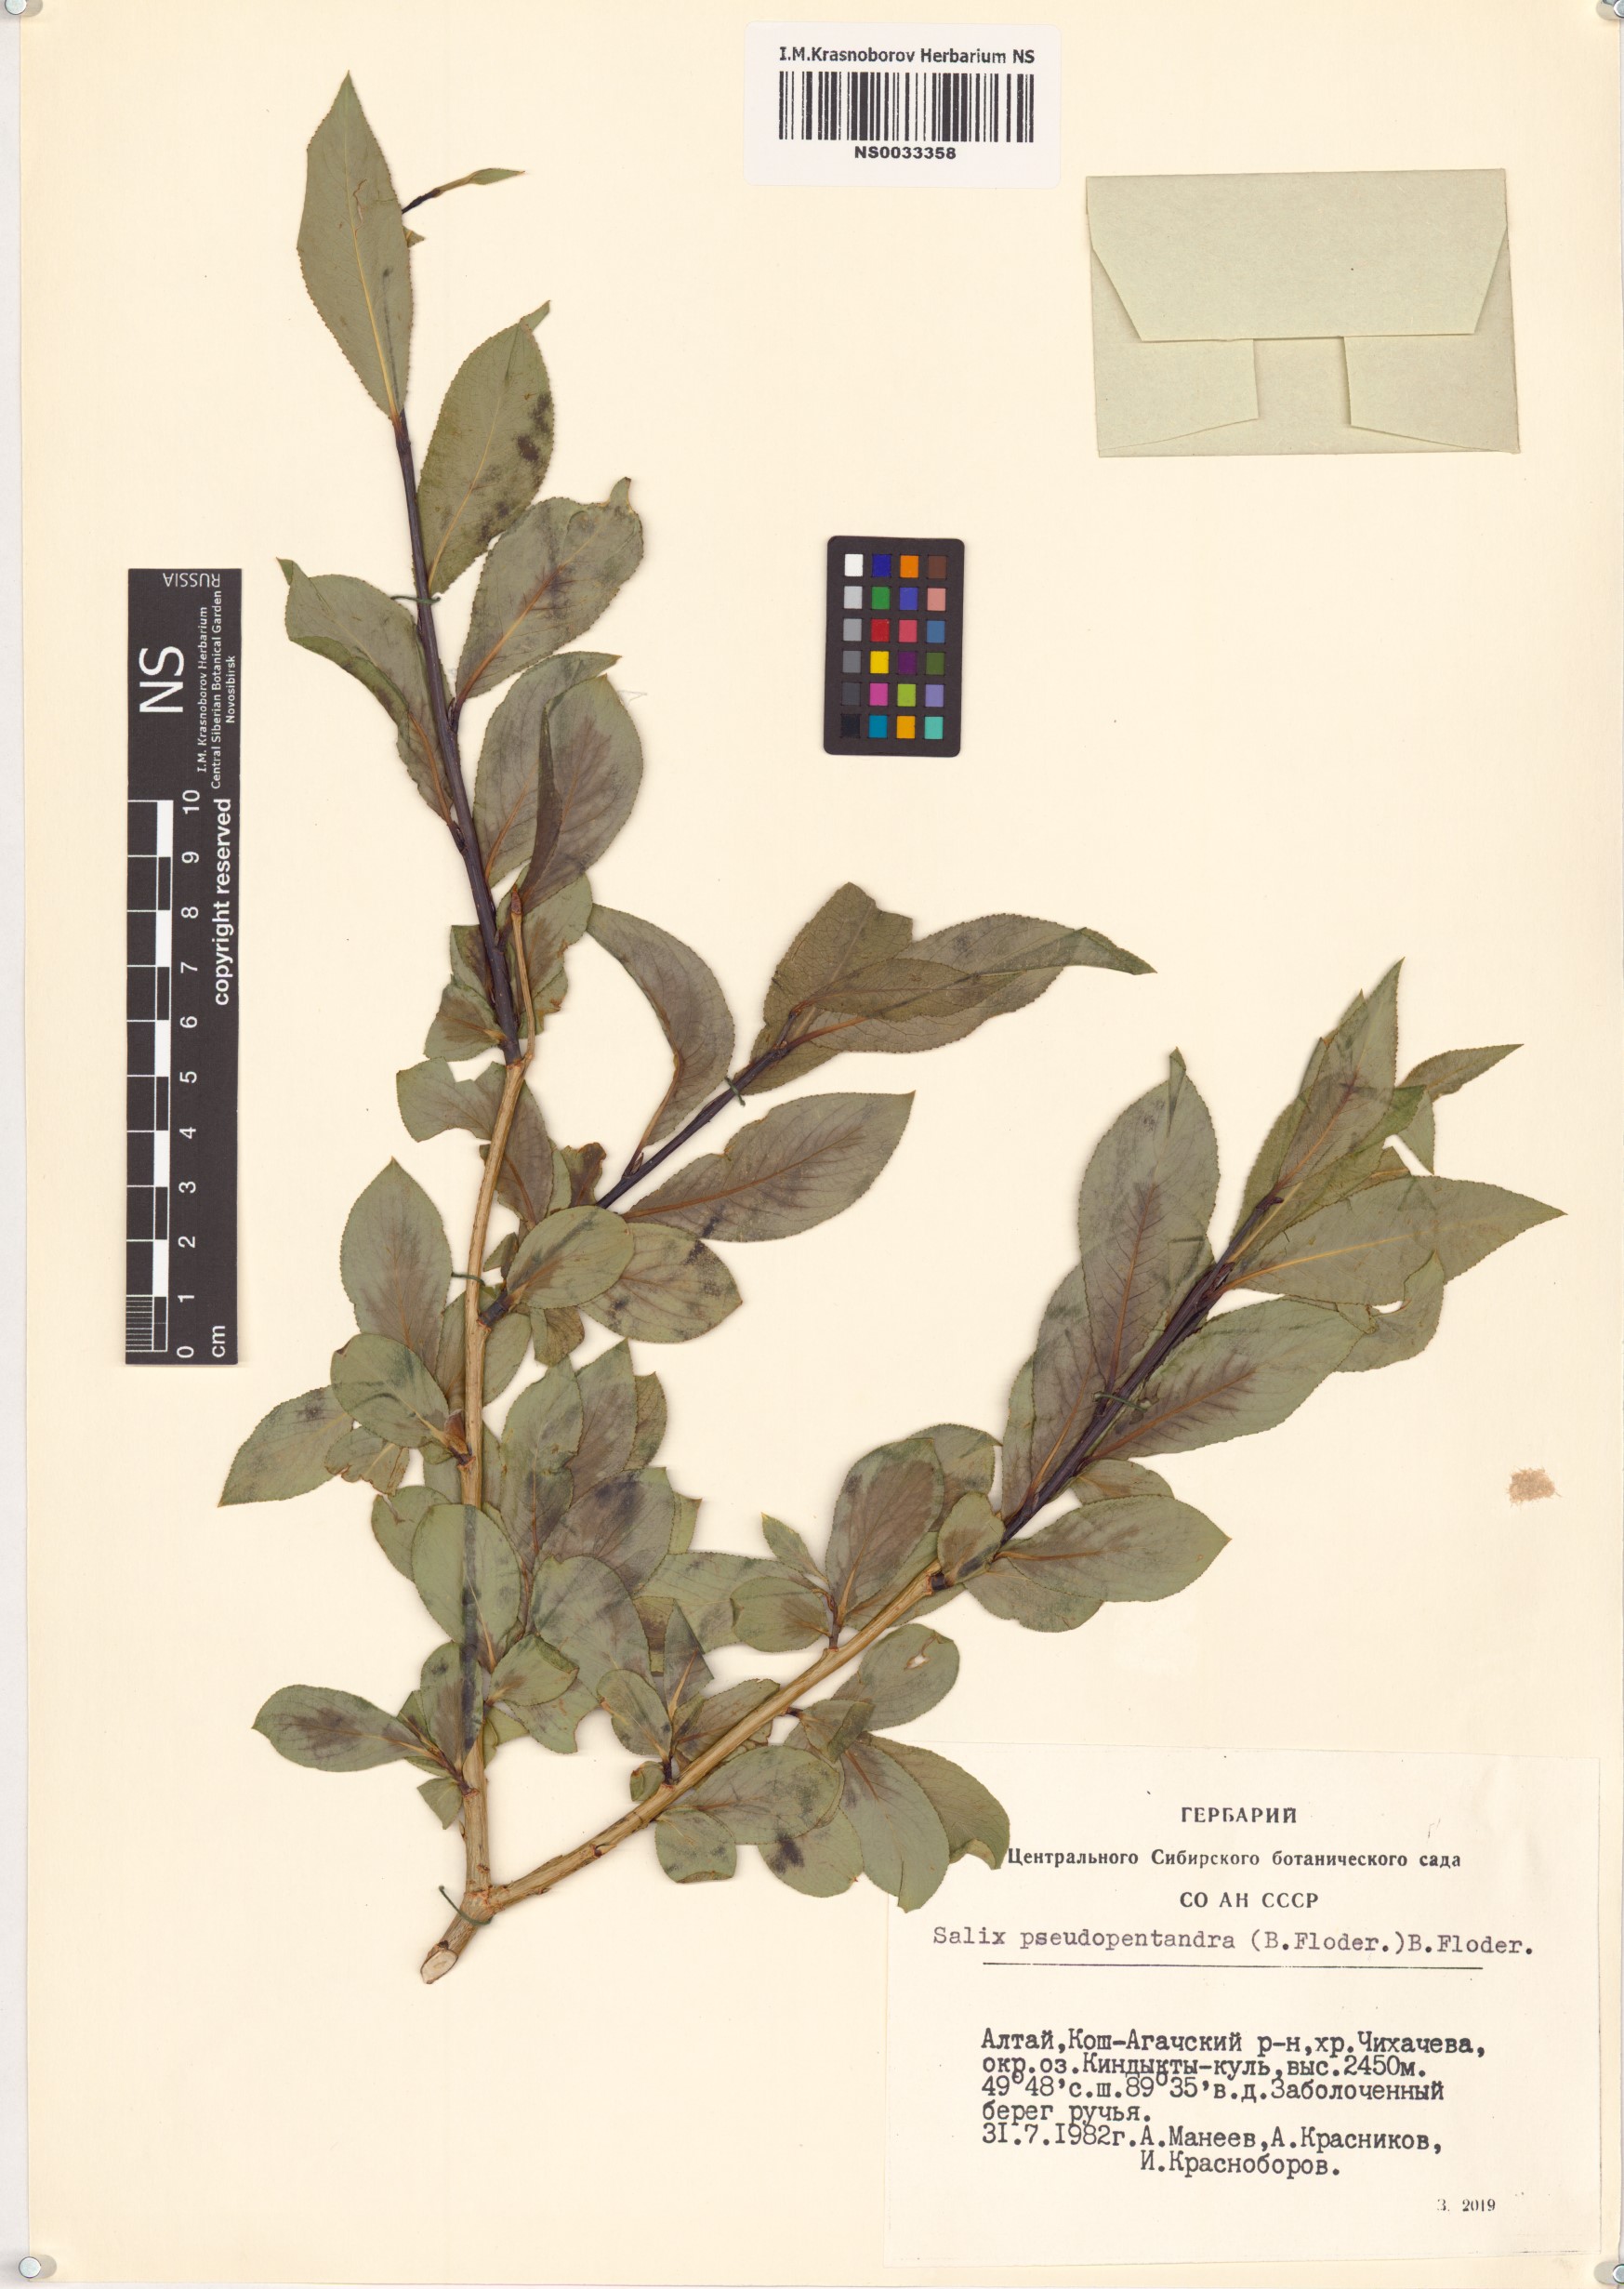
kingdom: Plantae
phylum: Tracheophyta
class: Magnoliopsida
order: Malpighiales
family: Salicaceae
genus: Salix
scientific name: Salix pseudopentandra
